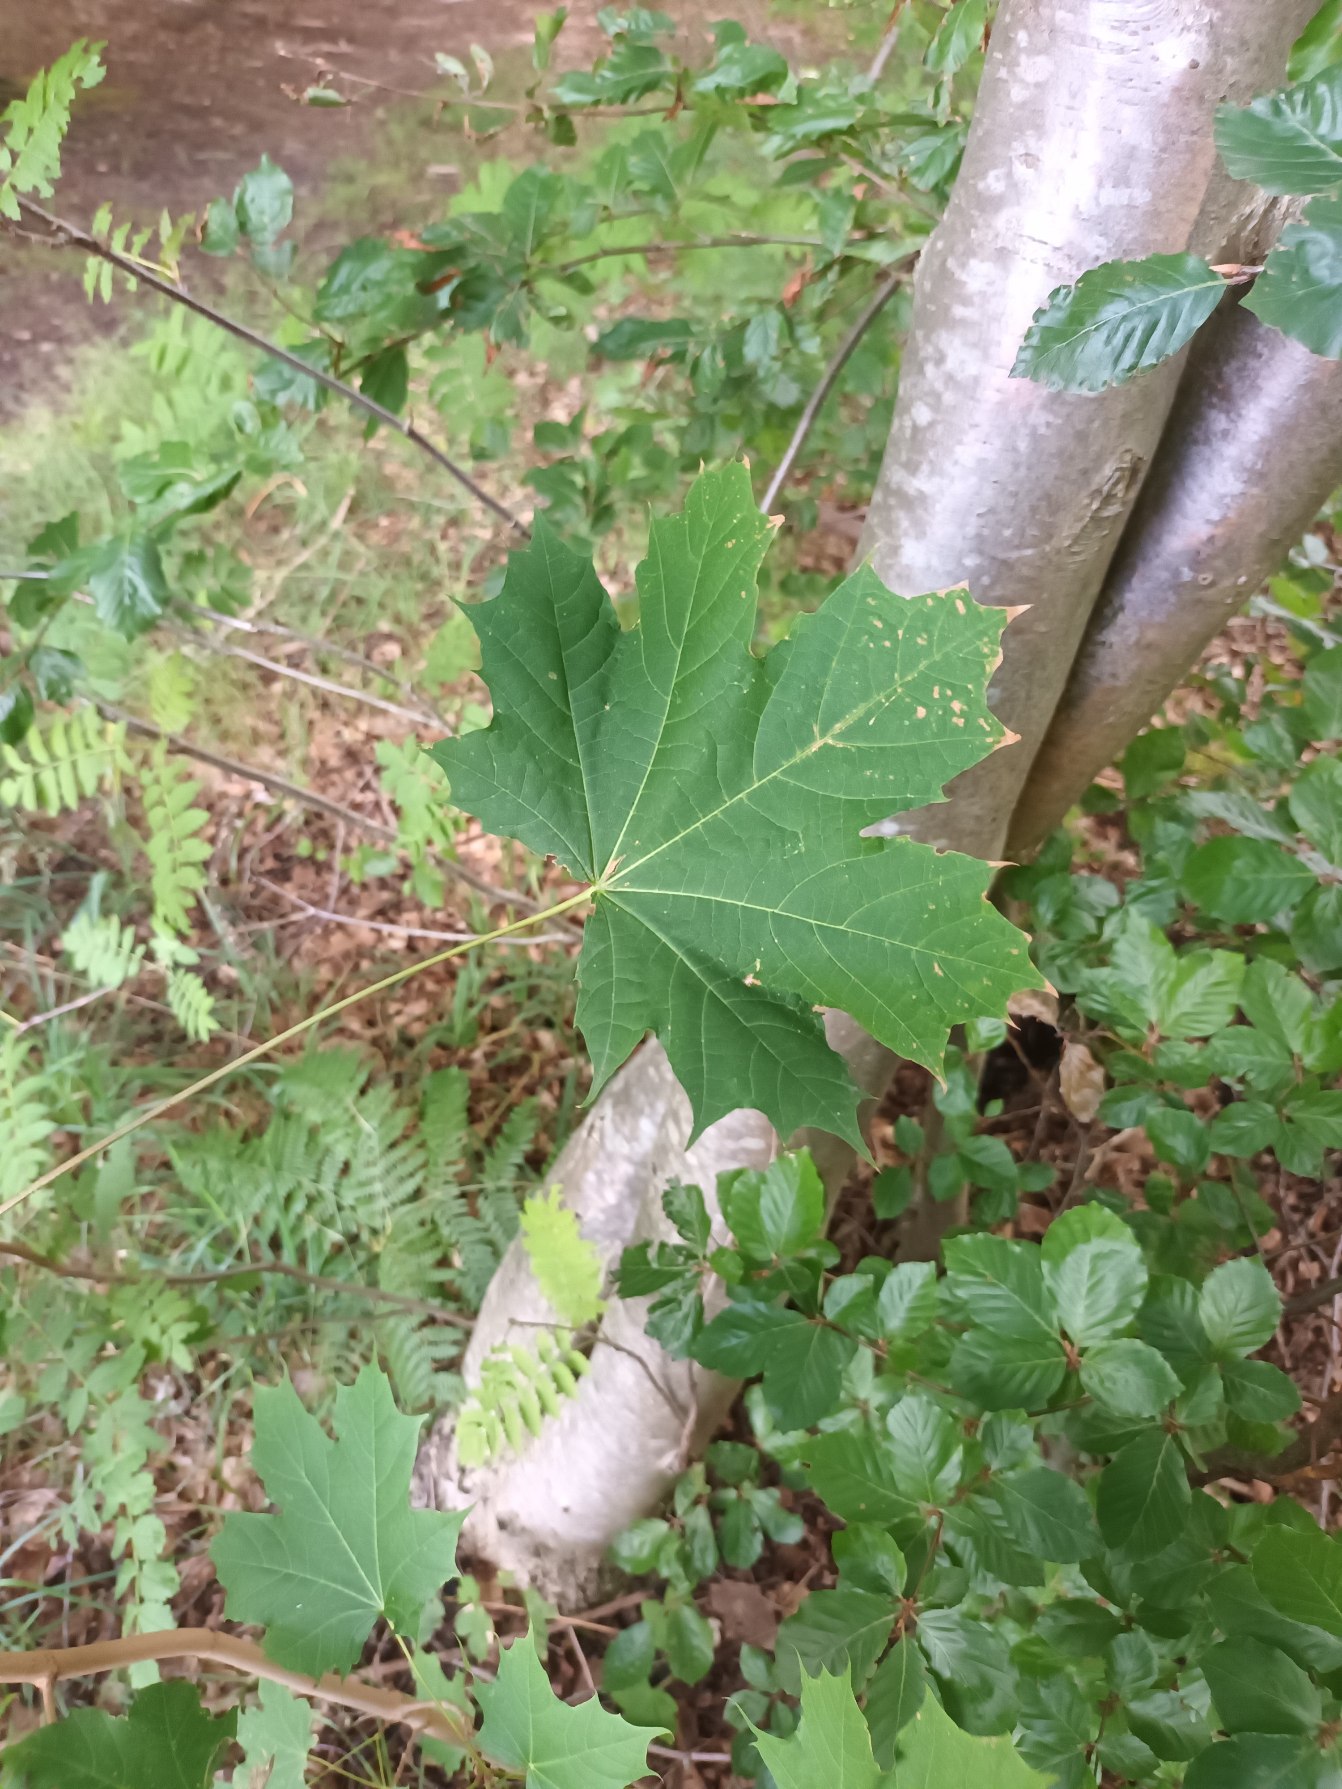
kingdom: Plantae
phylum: Tracheophyta
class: Magnoliopsida
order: Sapindales
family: Sapindaceae
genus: Acer
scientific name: Acer platanoides
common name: Spids-løn
